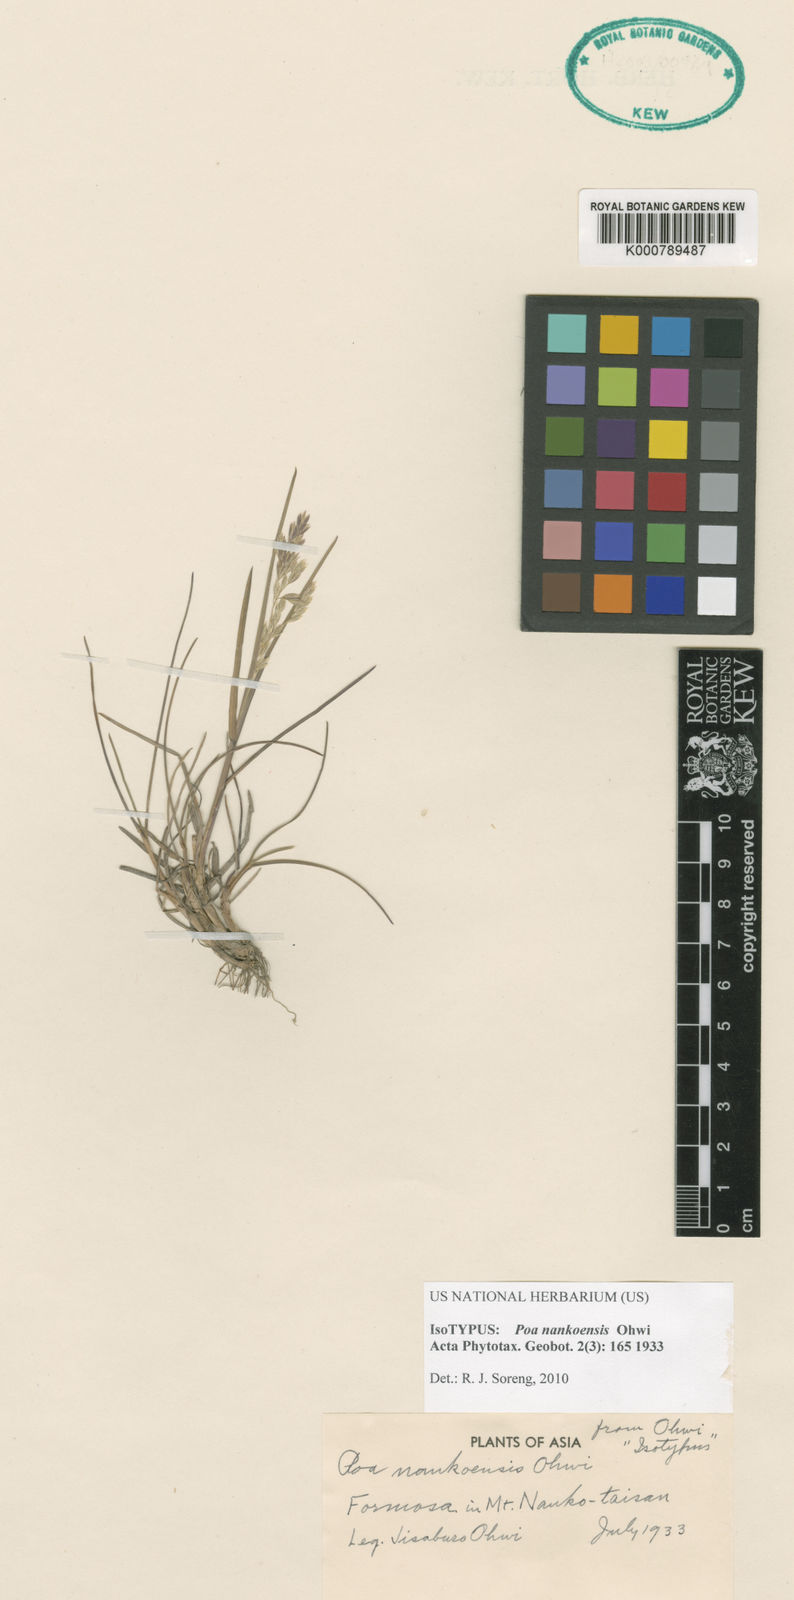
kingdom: Plantae
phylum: Tracheophyta
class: Liliopsida
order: Poales
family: Poaceae
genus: Poa
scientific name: Poa nankoensis
